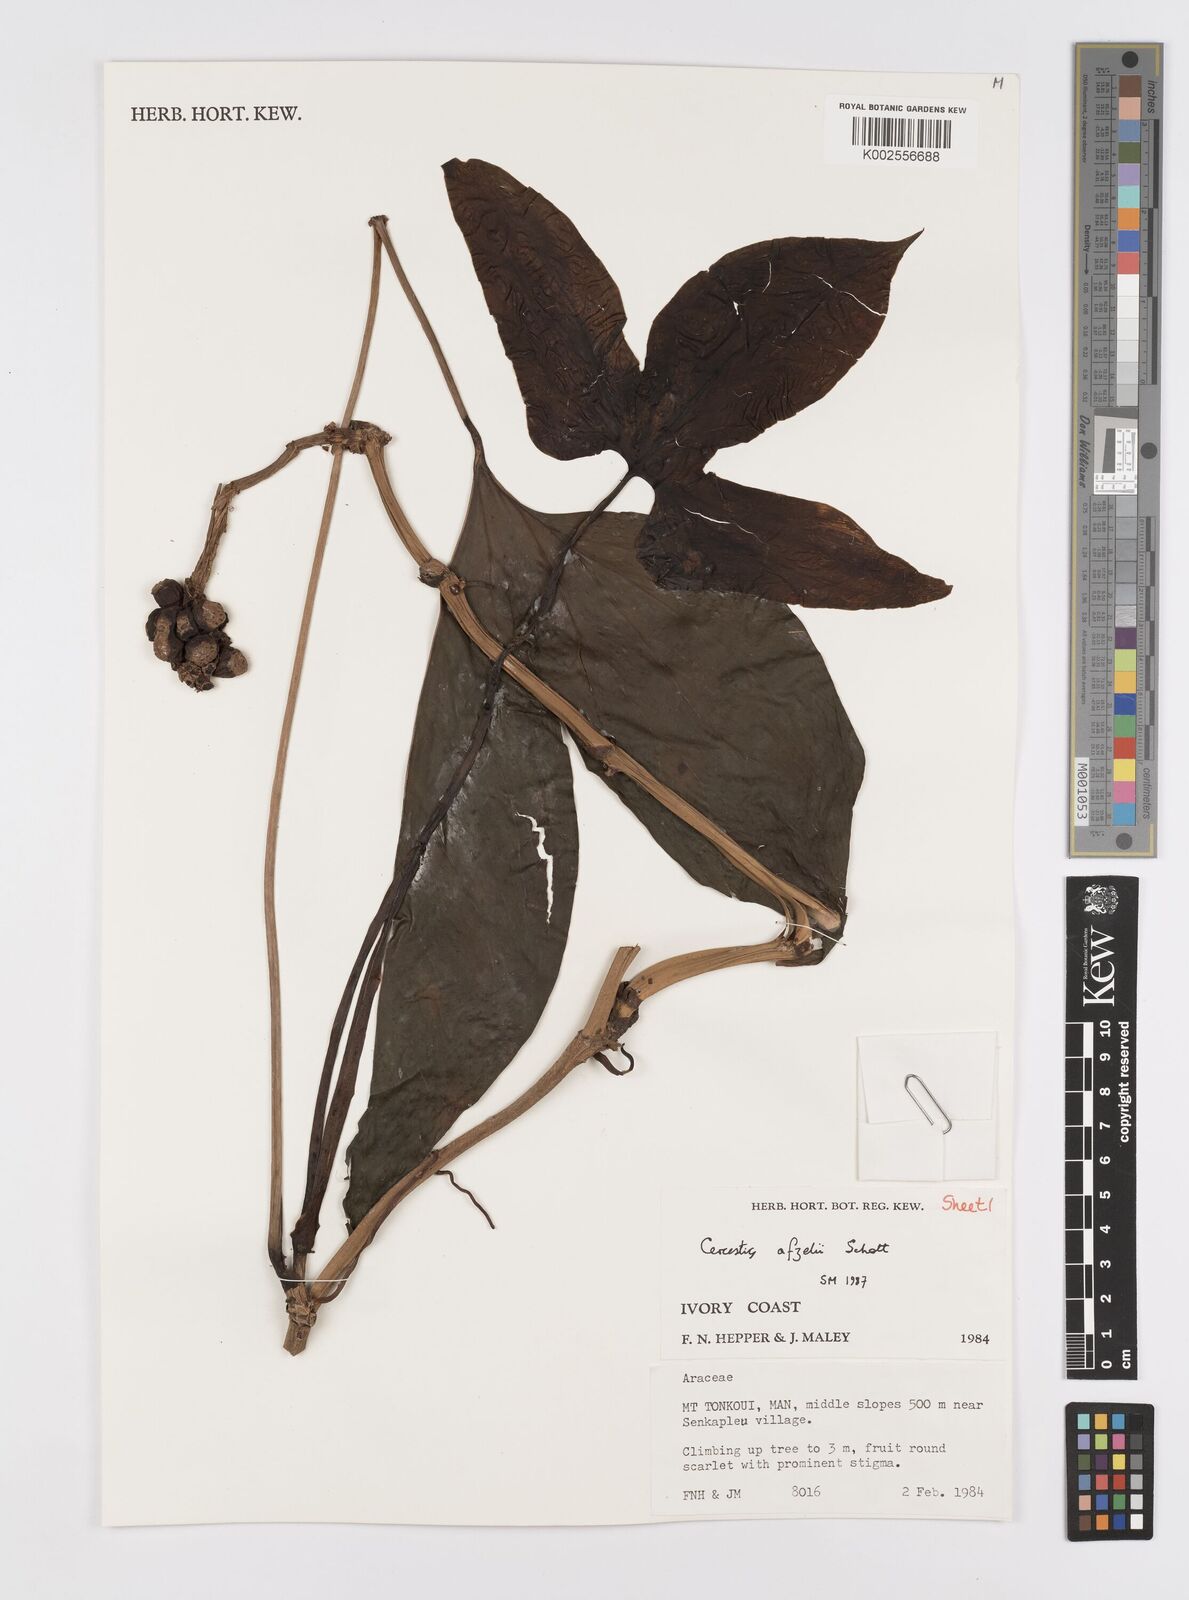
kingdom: Plantae
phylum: Tracheophyta
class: Liliopsida
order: Alismatales
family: Araceae
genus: Cercestis
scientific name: Cercestis afzelii
